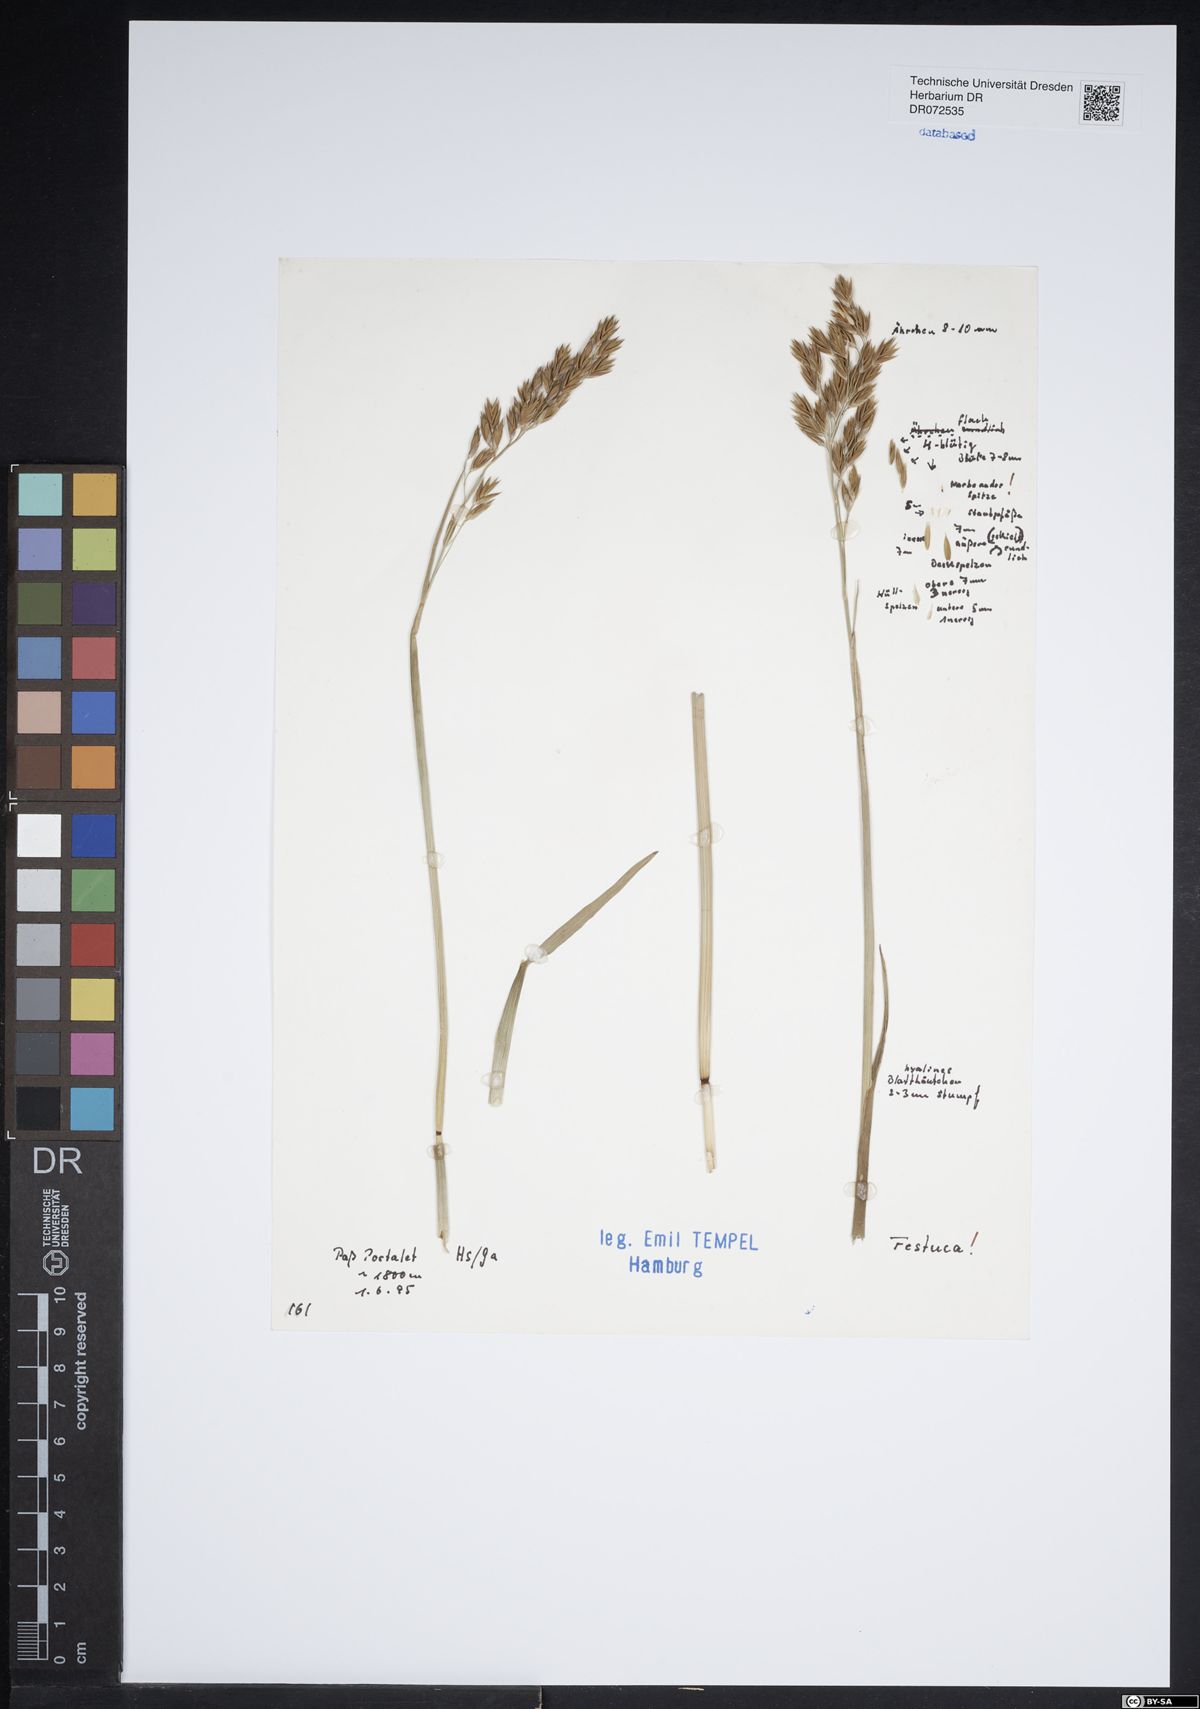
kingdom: Plantae
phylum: Tracheophyta
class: Liliopsida
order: Poales
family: Poaceae
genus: Festuca
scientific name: Festuca
